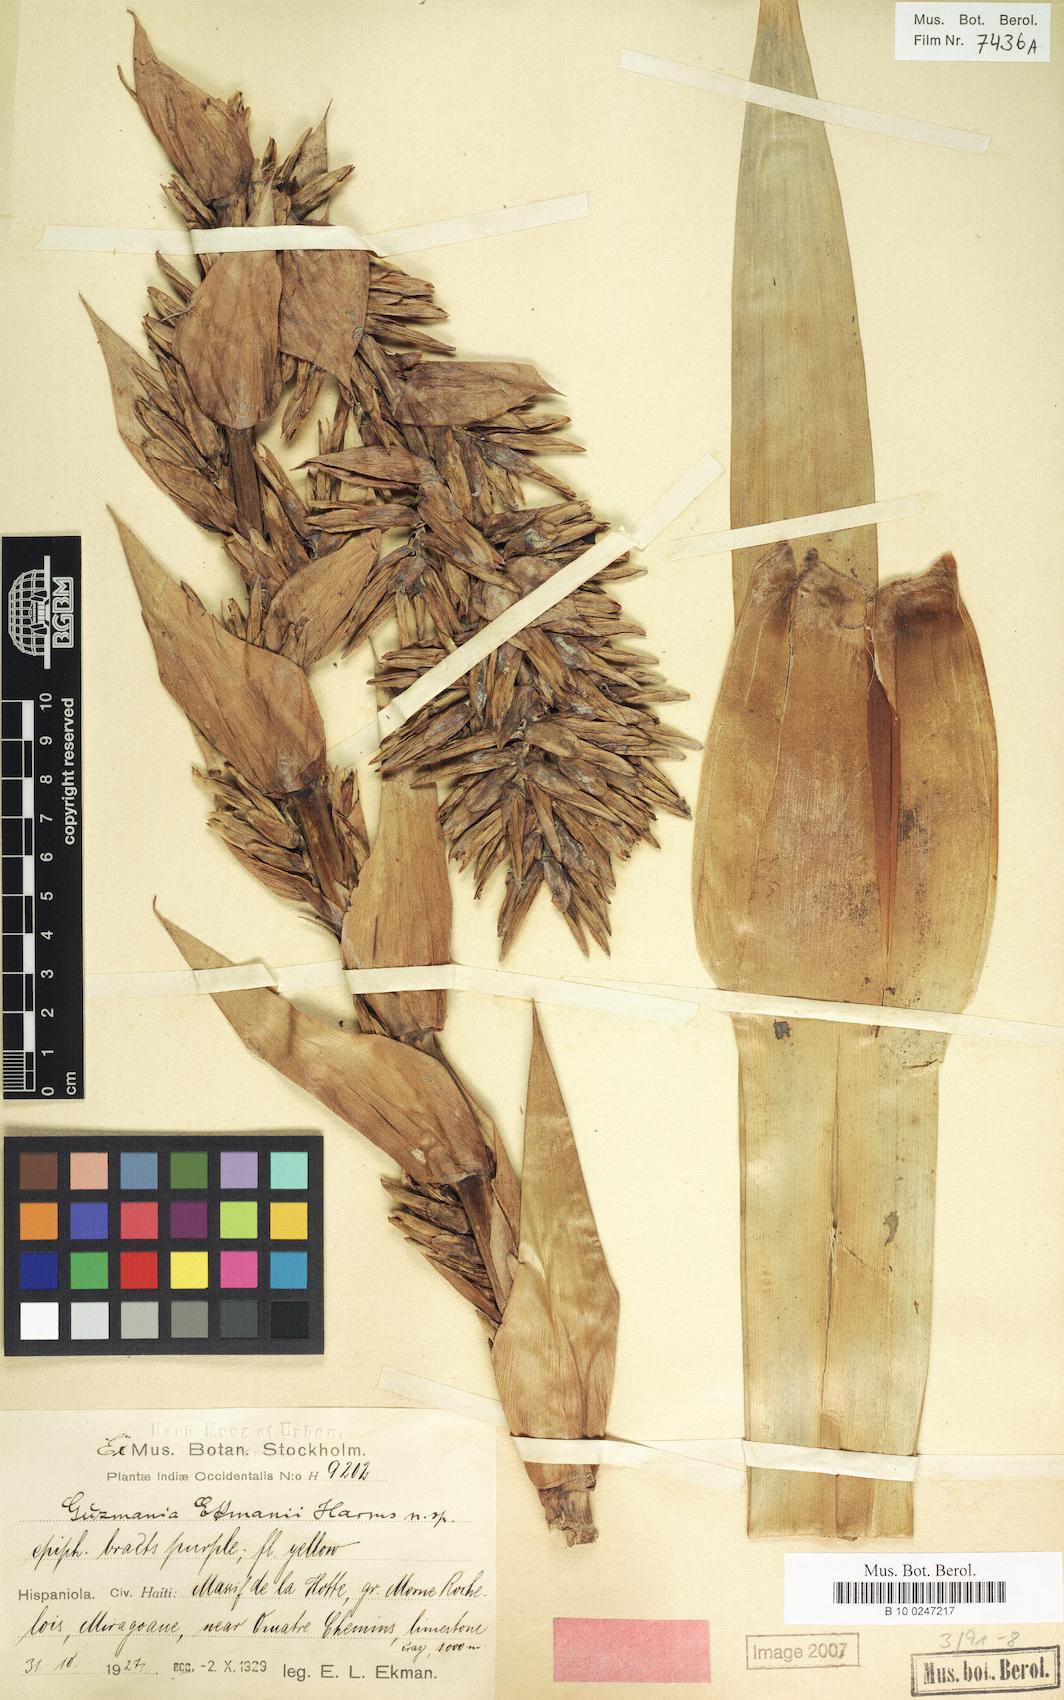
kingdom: Plantae
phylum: Tracheophyta
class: Liliopsida
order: Poales
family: Bromeliaceae
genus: Guzmania
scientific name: Guzmania ekmanii
